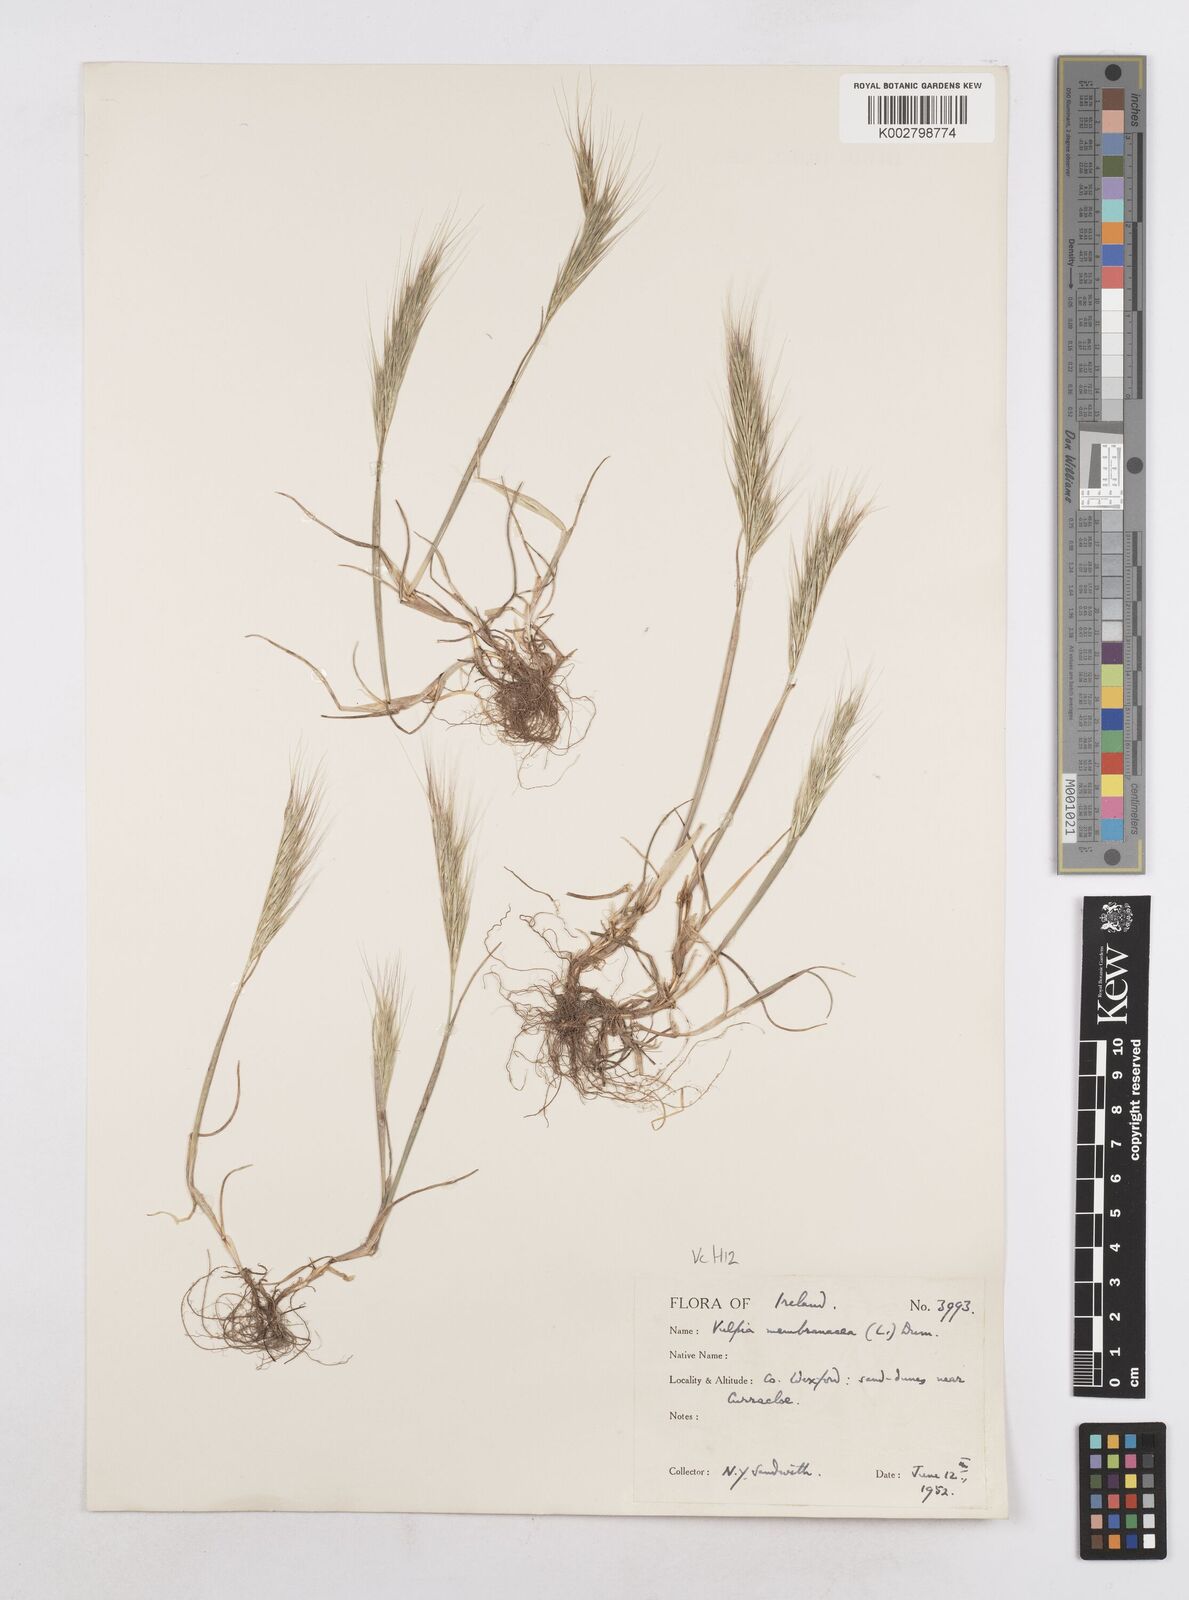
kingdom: Plantae
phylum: Tracheophyta
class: Liliopsida
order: Poales
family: Poaceae
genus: Festuca
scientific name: Festuca fasciculata
